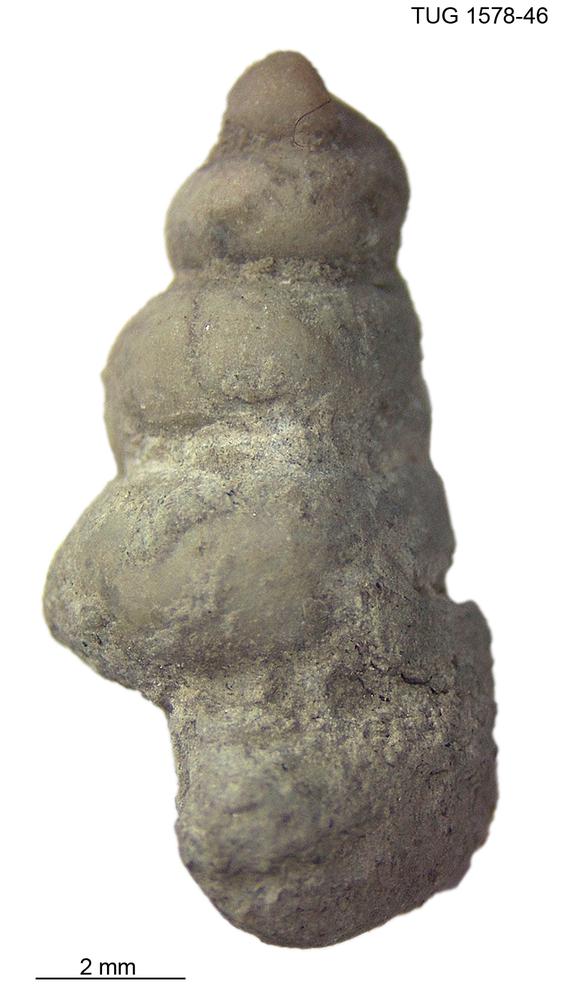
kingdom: Animalia
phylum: Mollusca
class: Gastropoda
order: Pleurotomariida
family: Murchisoniidae
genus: Hormotoma
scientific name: Hormotoma
